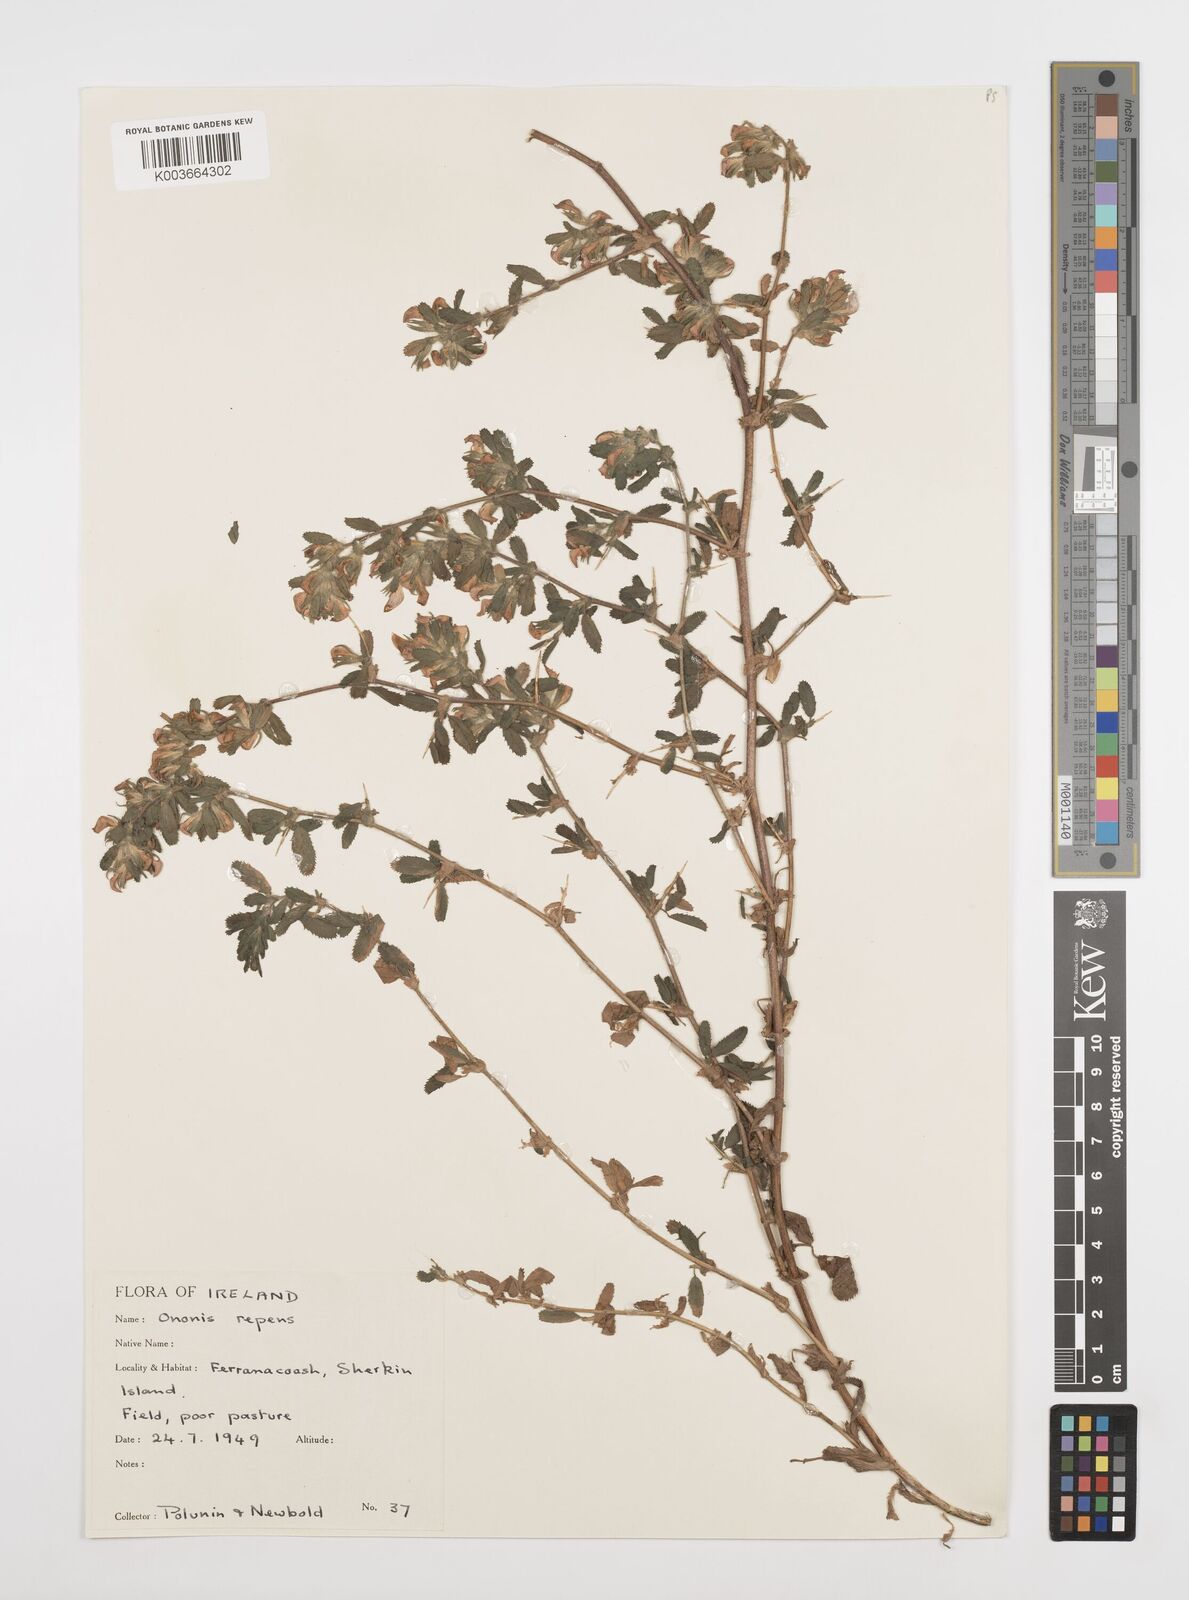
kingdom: Plantae
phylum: Tracheophyta
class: Magnoliopsida
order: Fabales
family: Fabaceae
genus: Ononis
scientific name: Ononis spinosa
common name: Spiny restharrow
